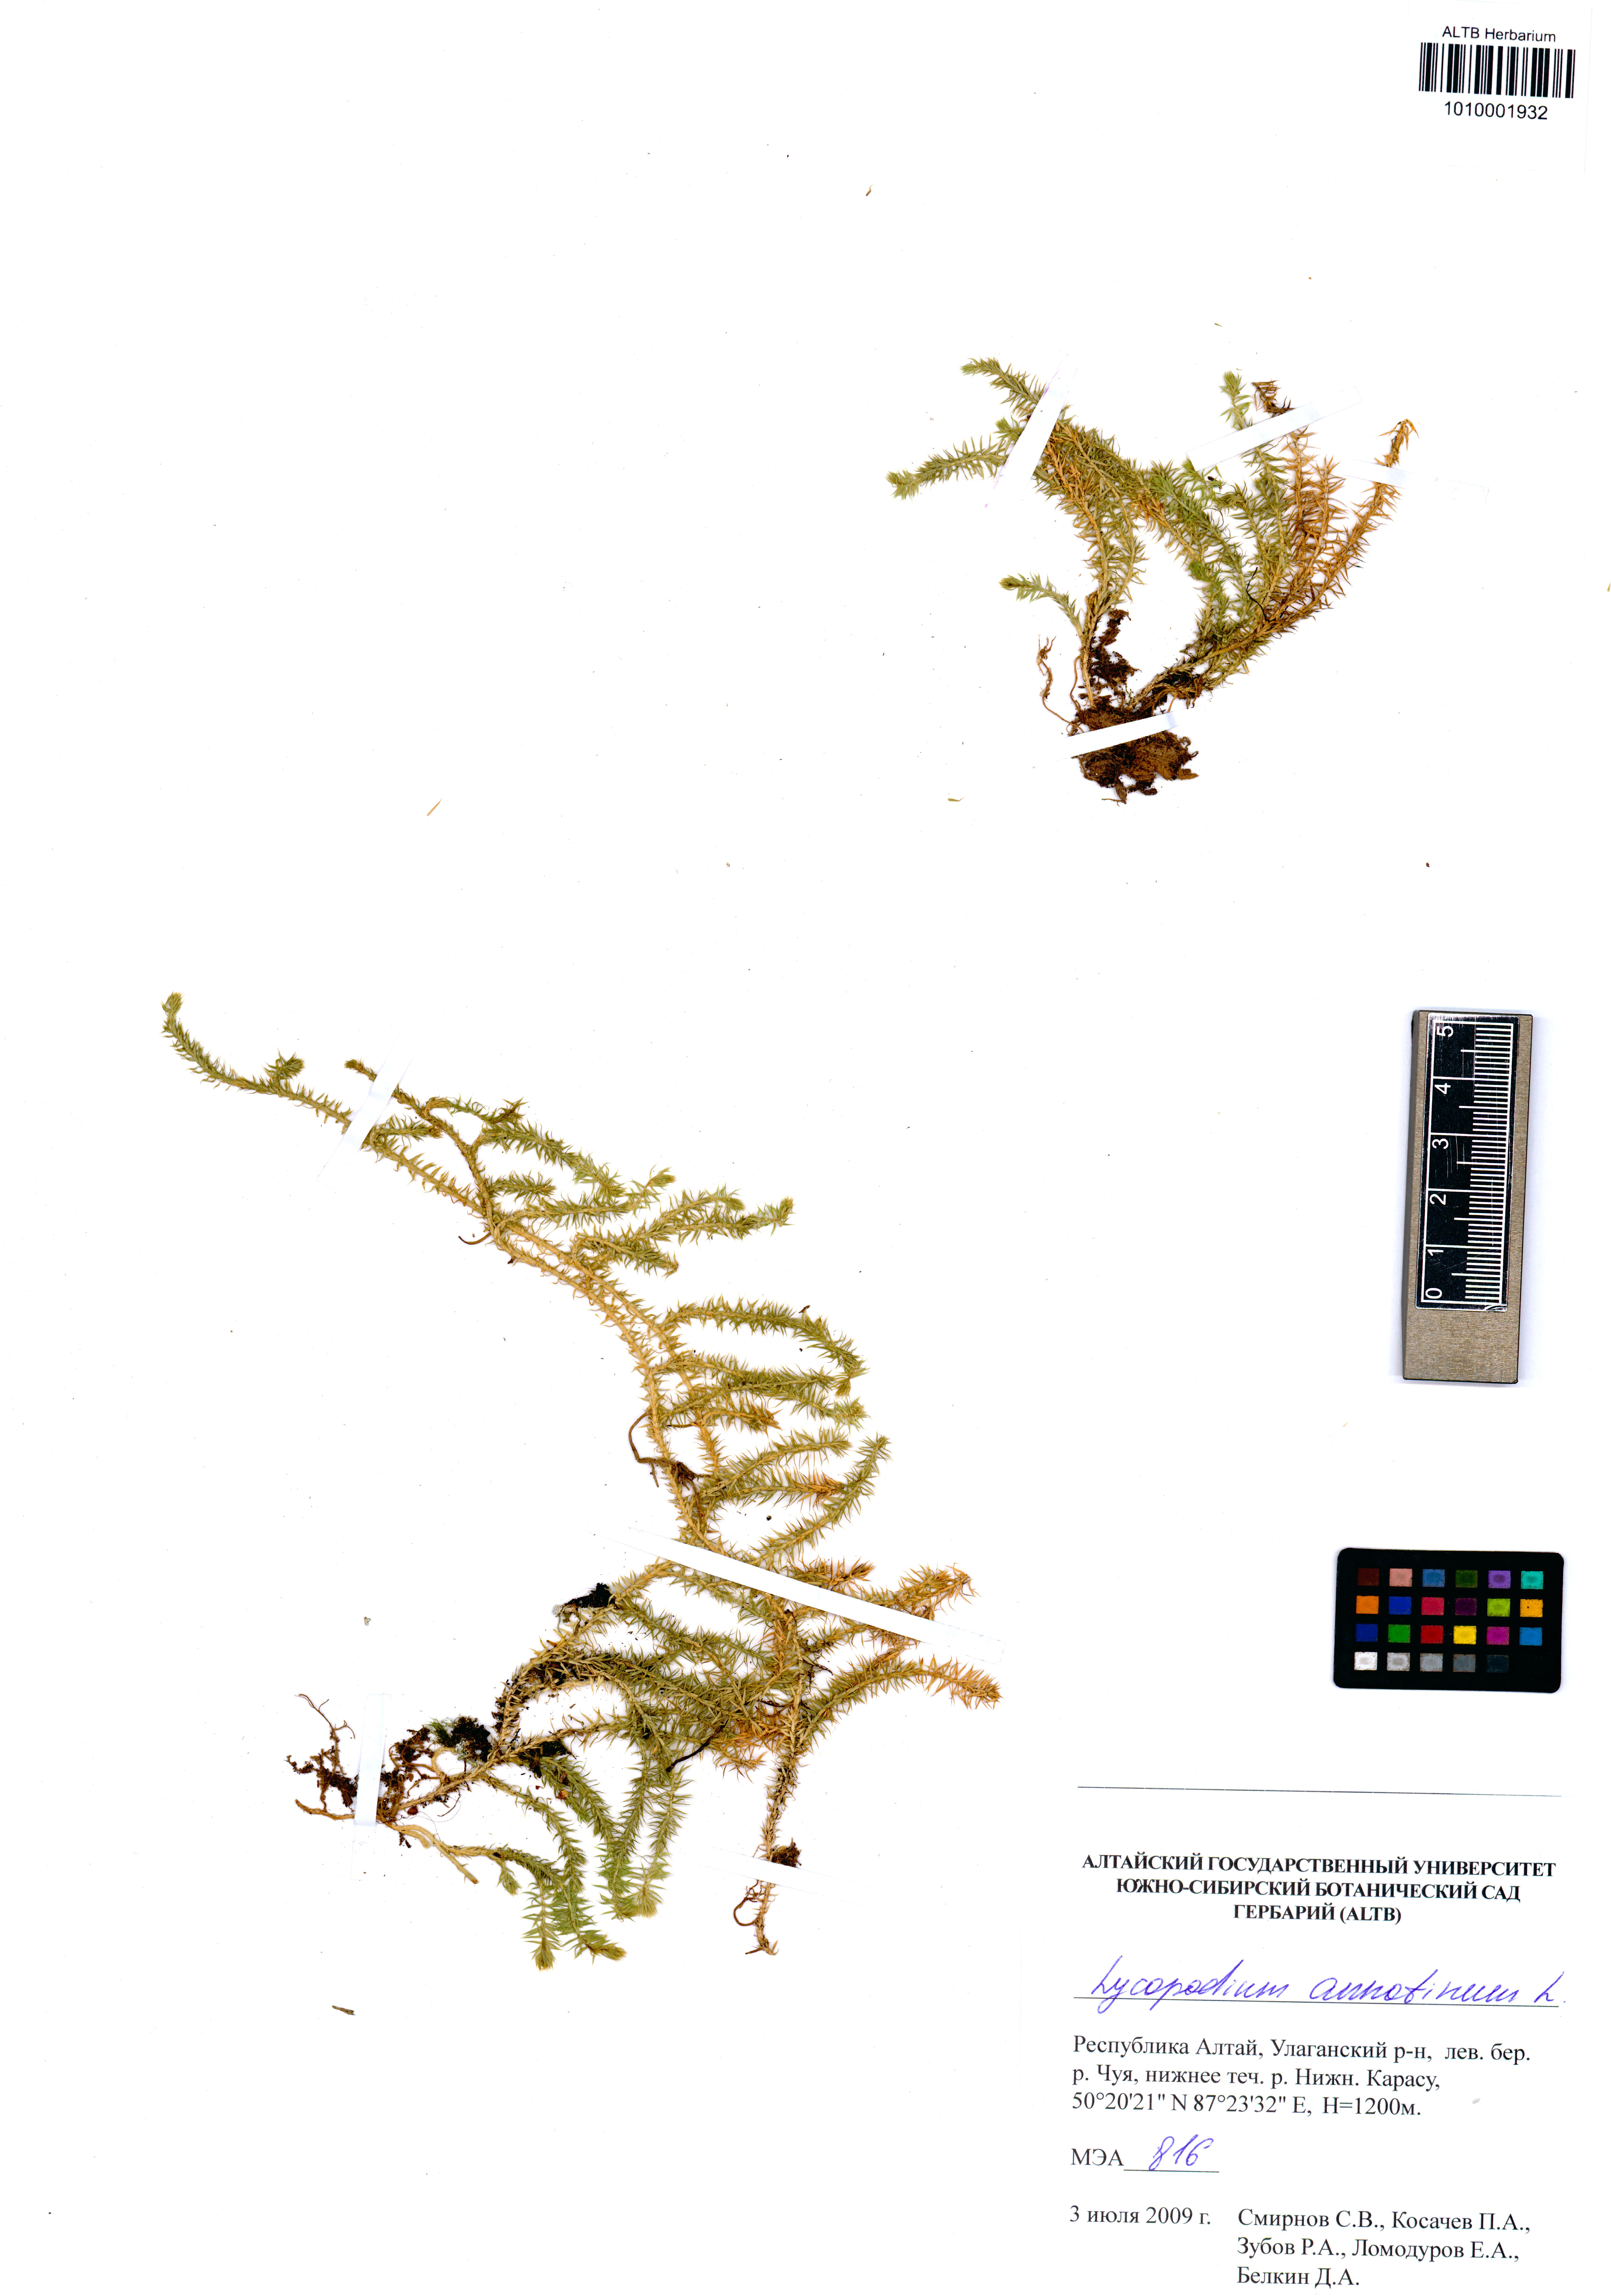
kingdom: Plantae
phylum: Tracheophyta
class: Lycopodiopsida
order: Lycopodiales
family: Lycopodiaceae
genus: Spinulum
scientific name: Spinulum annotinum
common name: Interrupted club-moss
